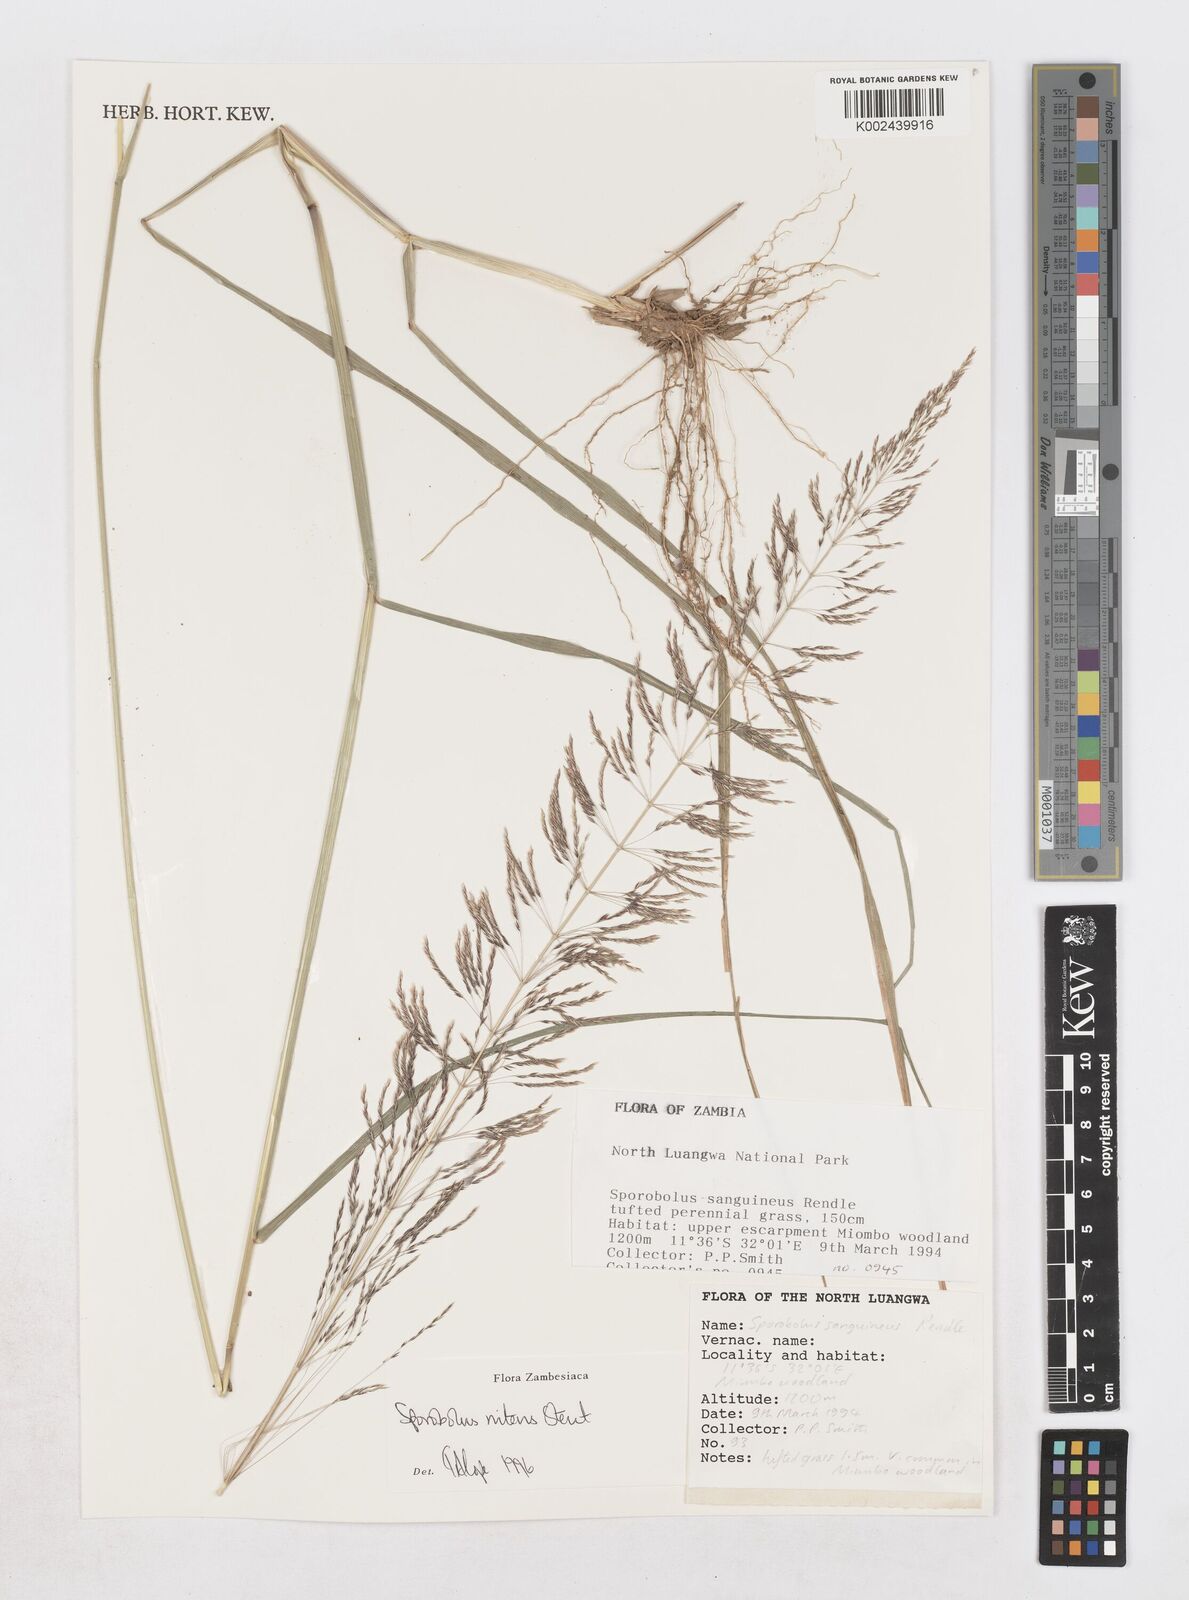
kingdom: Plantae
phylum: Tracheophyta
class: Liliopsida
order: Poales
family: Poaceae
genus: Sporobolus
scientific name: Sporobolus nitens
